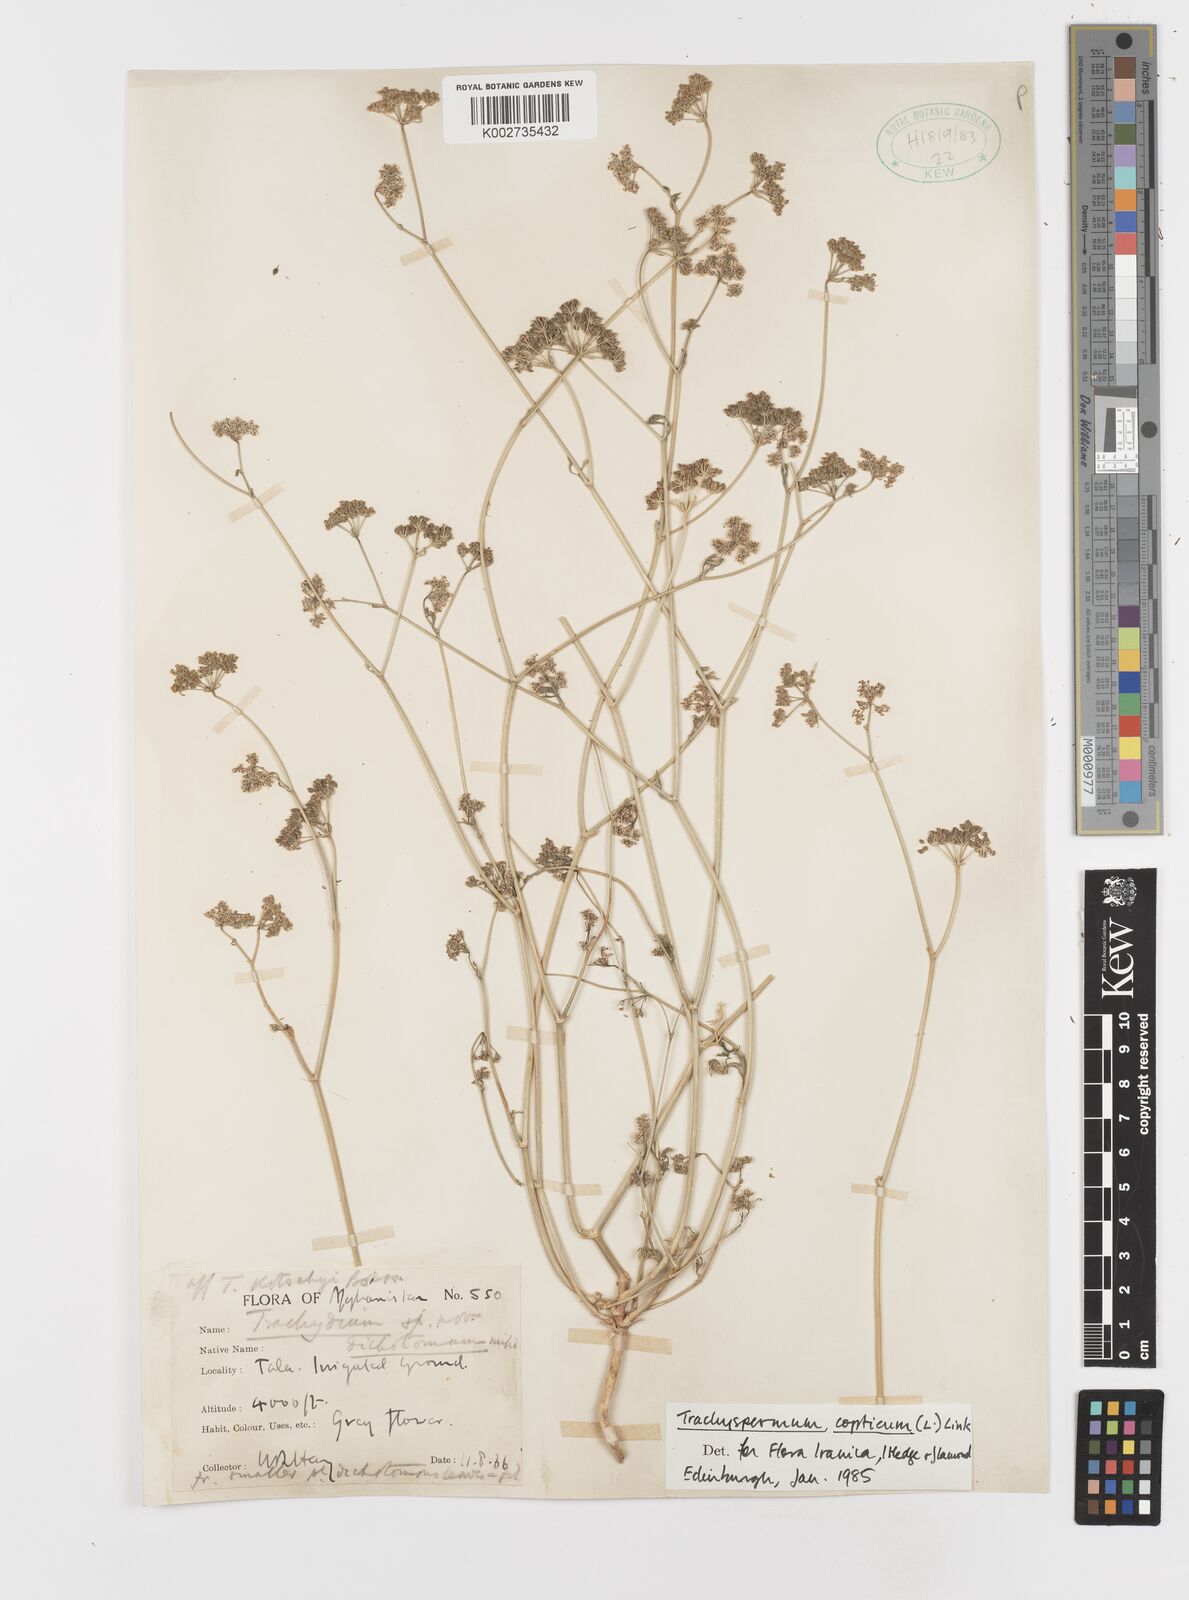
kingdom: Plantae
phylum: Tracheophyta
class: Magnoliopsida
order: Apiales
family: Apiaceae
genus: Trachyspermum
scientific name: Trachyspermum ammi
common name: Ajowan
